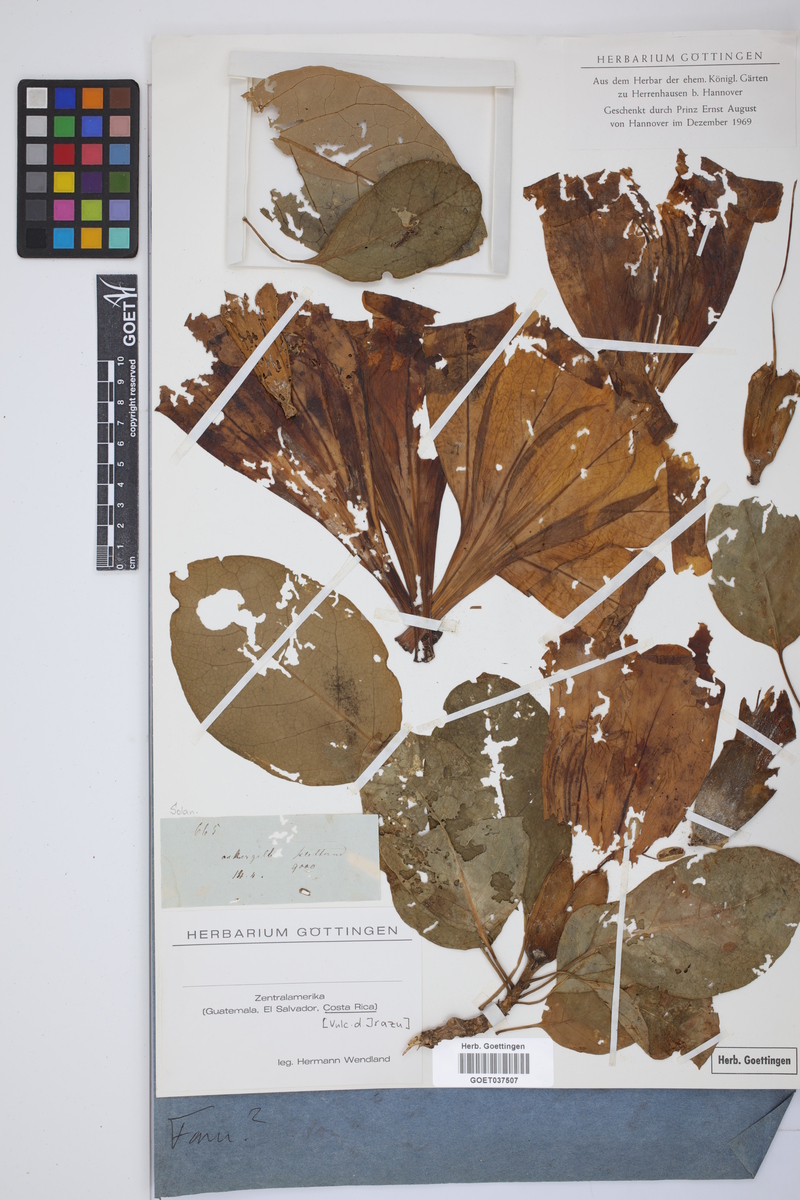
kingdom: Plantae
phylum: Tracheophyta
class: Magnoliopsida
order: Solanales
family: Solanaceae
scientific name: Solanaceae
